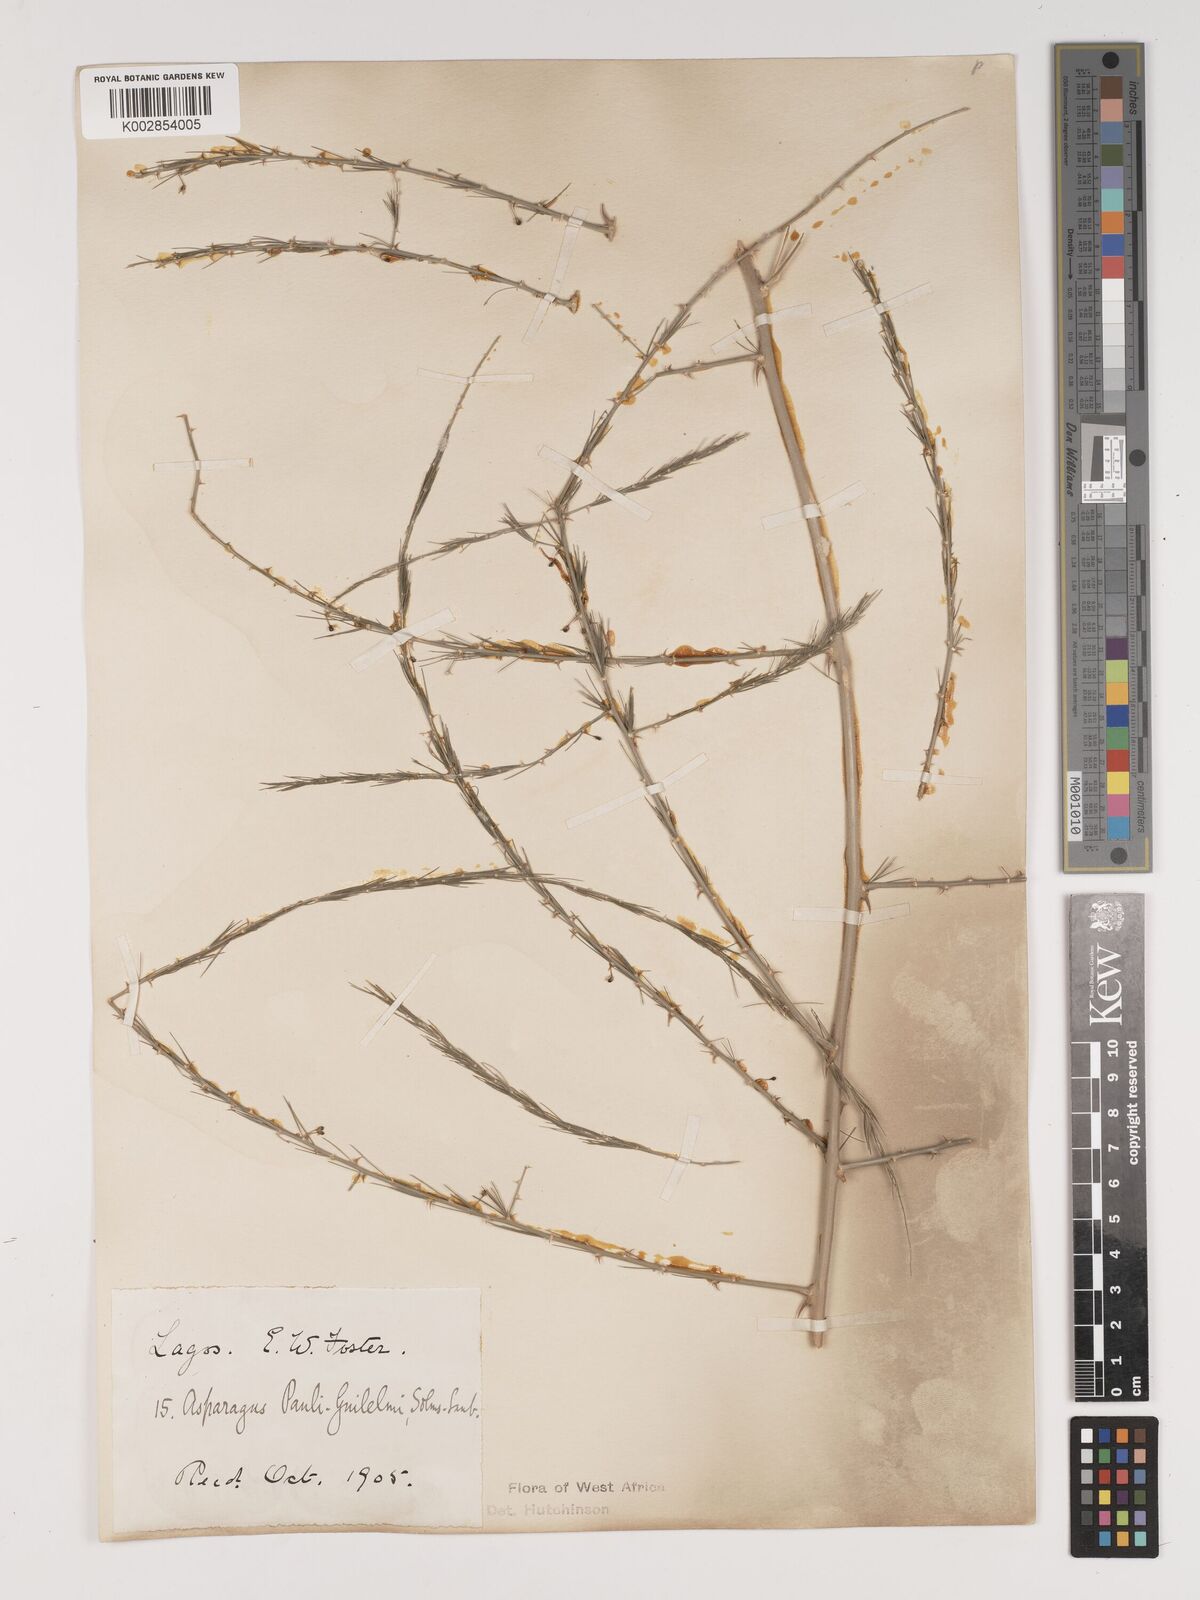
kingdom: Plantae
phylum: Tracheophyta
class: Liliopsida
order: Asparagales
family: Asparagaceae
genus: Asparagus
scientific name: Asparagus flagellaris
